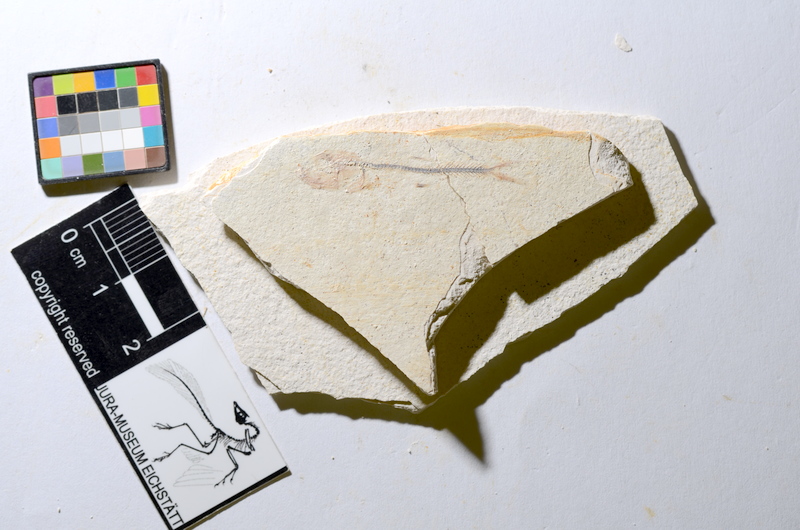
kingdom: Animalia
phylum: Chordata
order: Salmoniformes
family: Orthogonikleithridae
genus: Orthogonikleithrus
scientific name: Orthogonikleithrus hoelli
